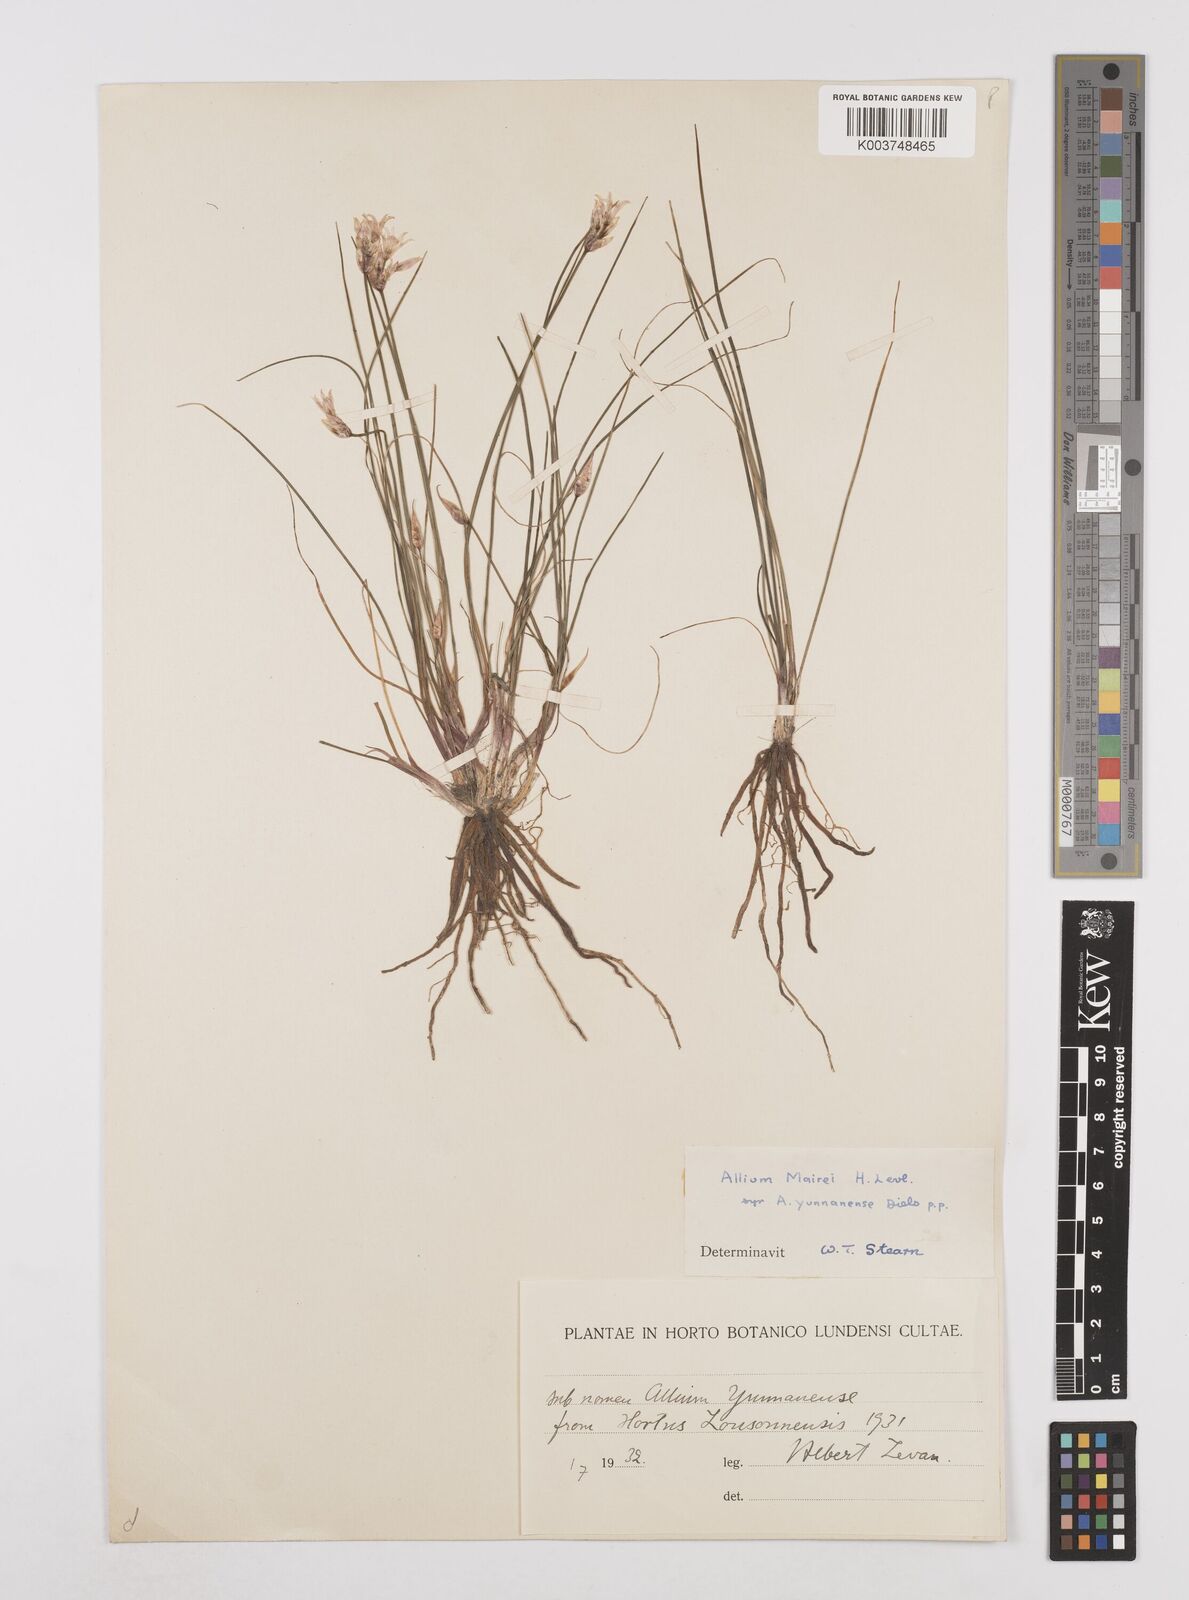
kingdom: Plantae
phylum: Tracheophyta
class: Liliopsida
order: Asparagales
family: Amaryllidaceae
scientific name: Amaryllidaceae
